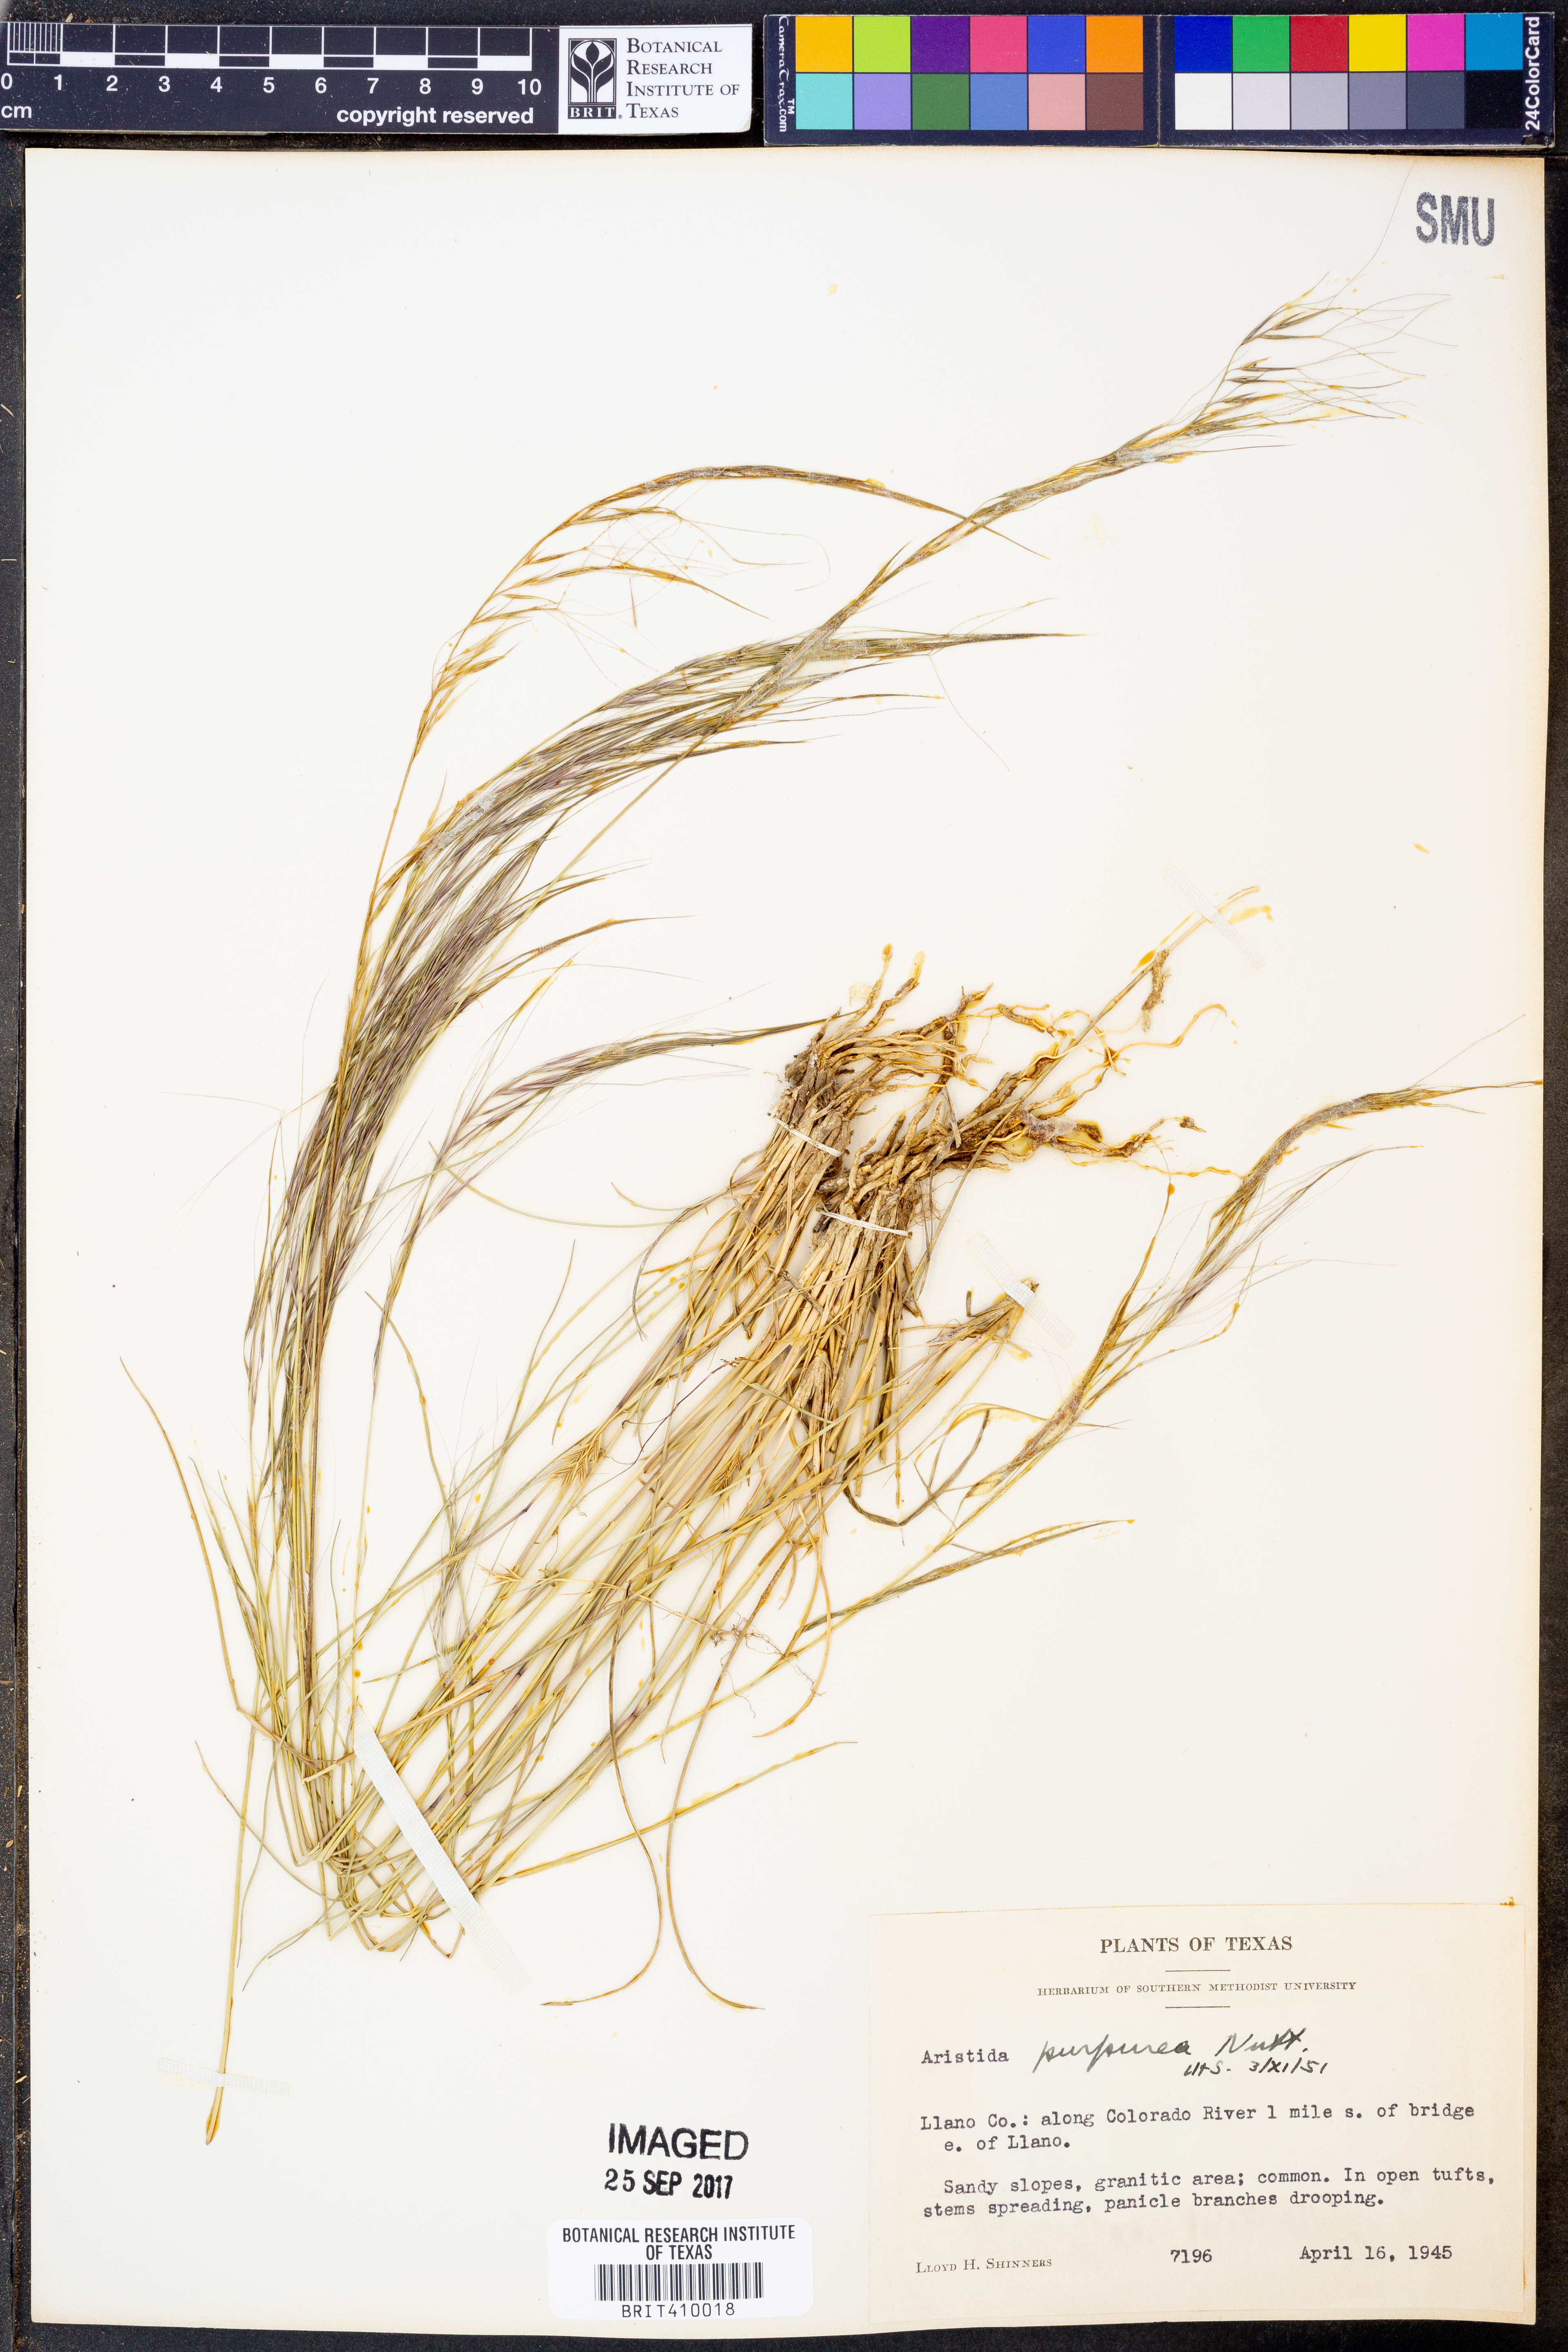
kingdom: Plantae
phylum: Tracheophyta
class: Liliopsida
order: Poales
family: Poaceae
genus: Aristida
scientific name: Aristida purpurea
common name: Purple threeawn
